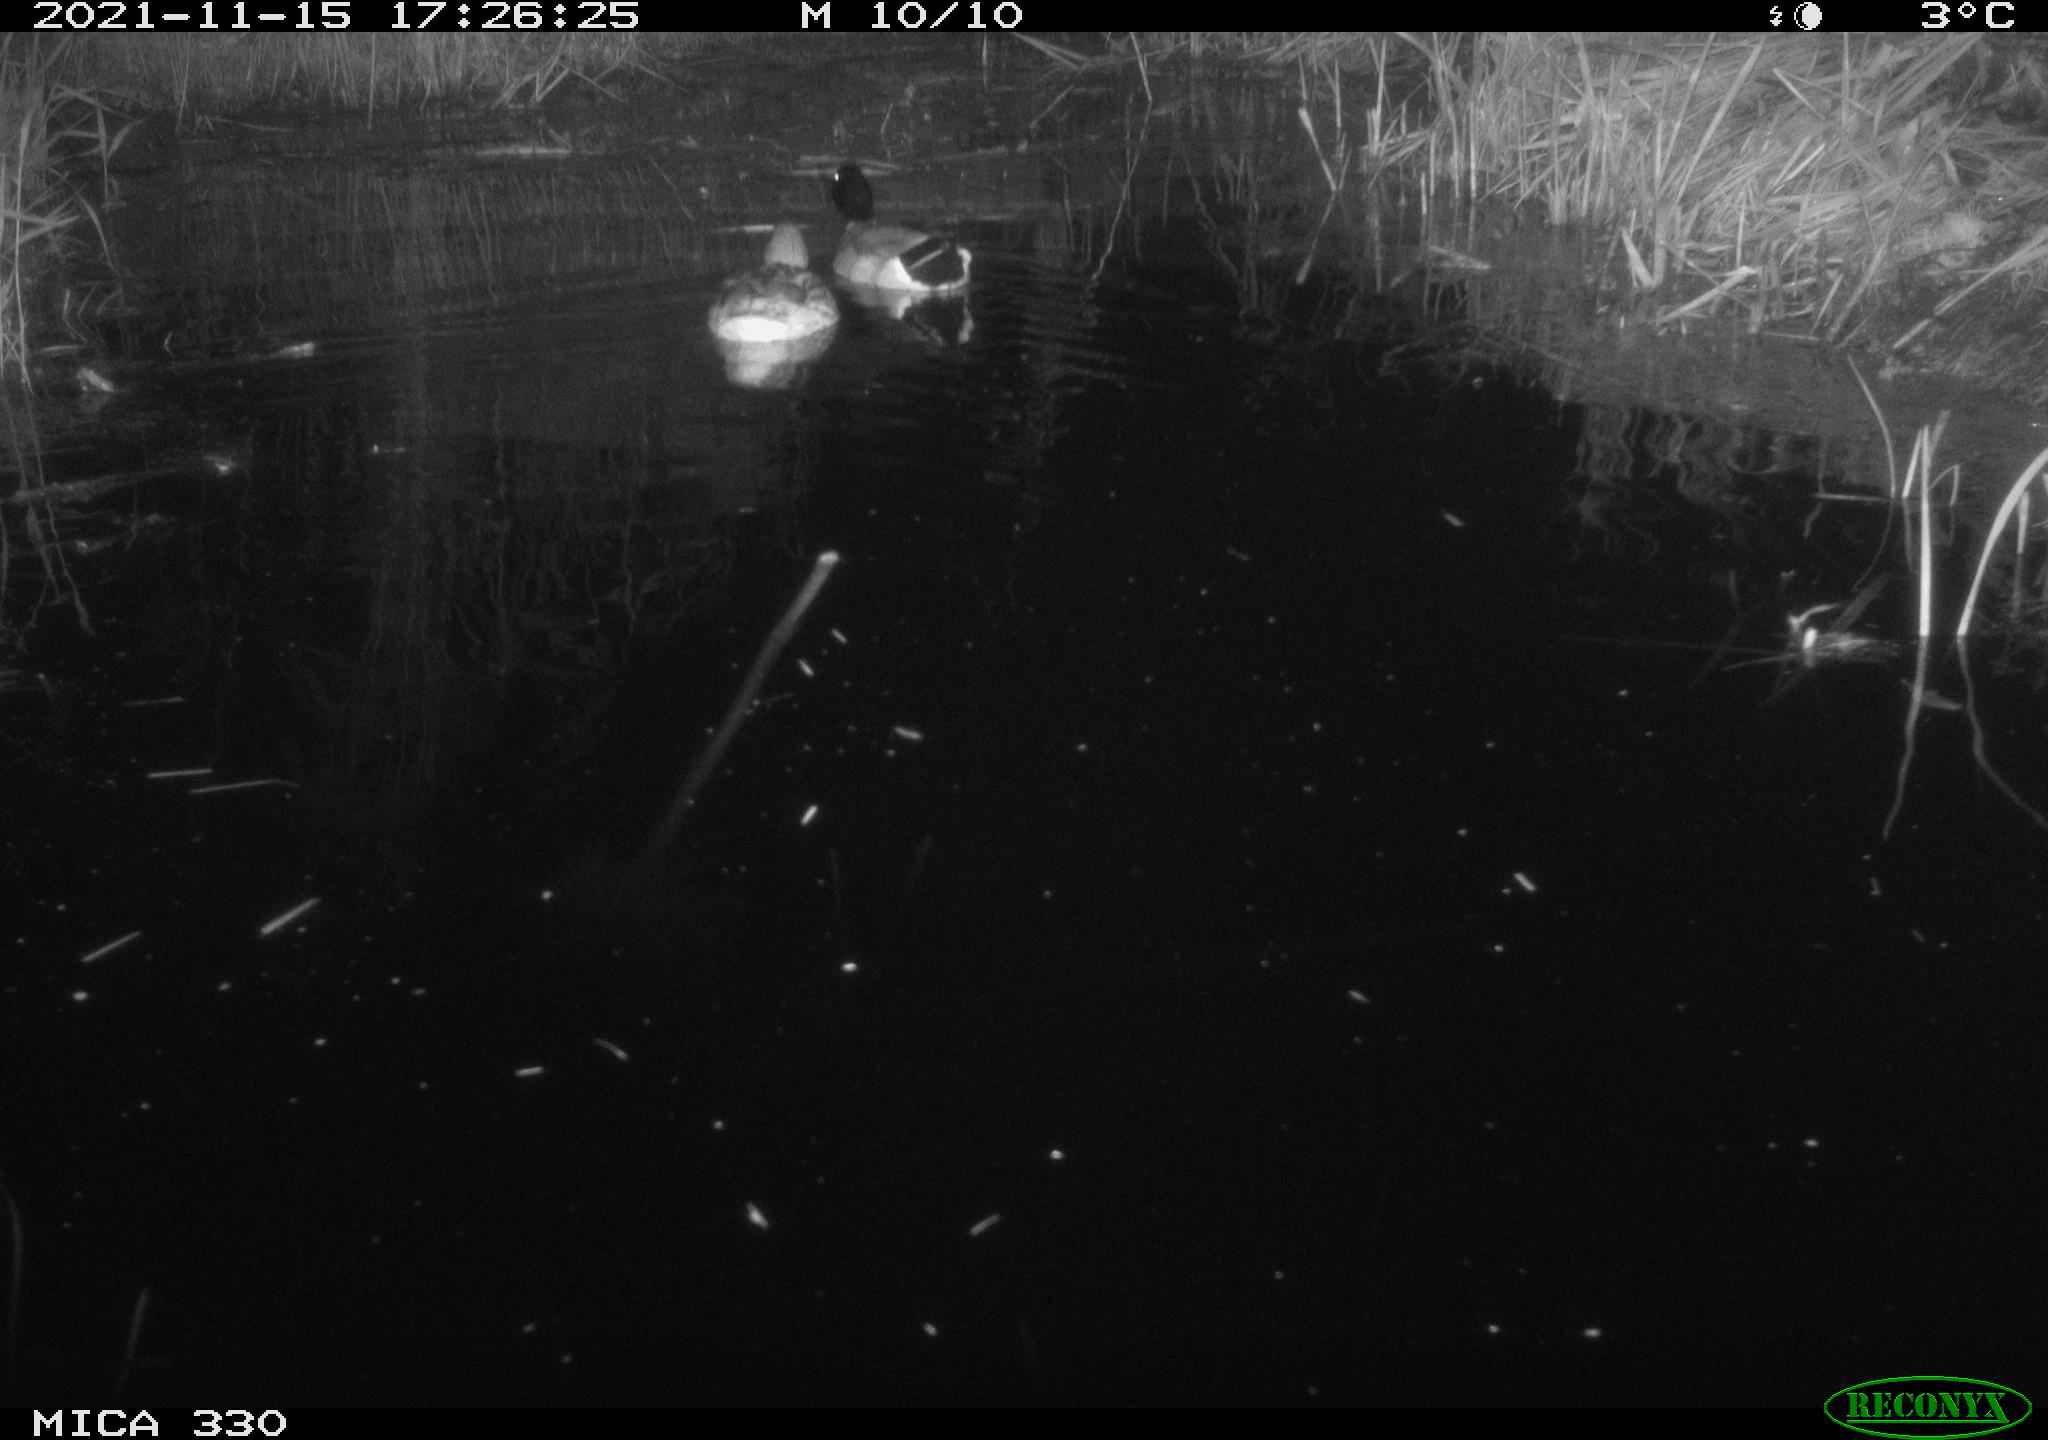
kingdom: Animalia
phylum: Chordata
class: Aves
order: Anseriformes
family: Anatidae
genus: Anas
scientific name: Anas platyrhynchos
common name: Mallard
